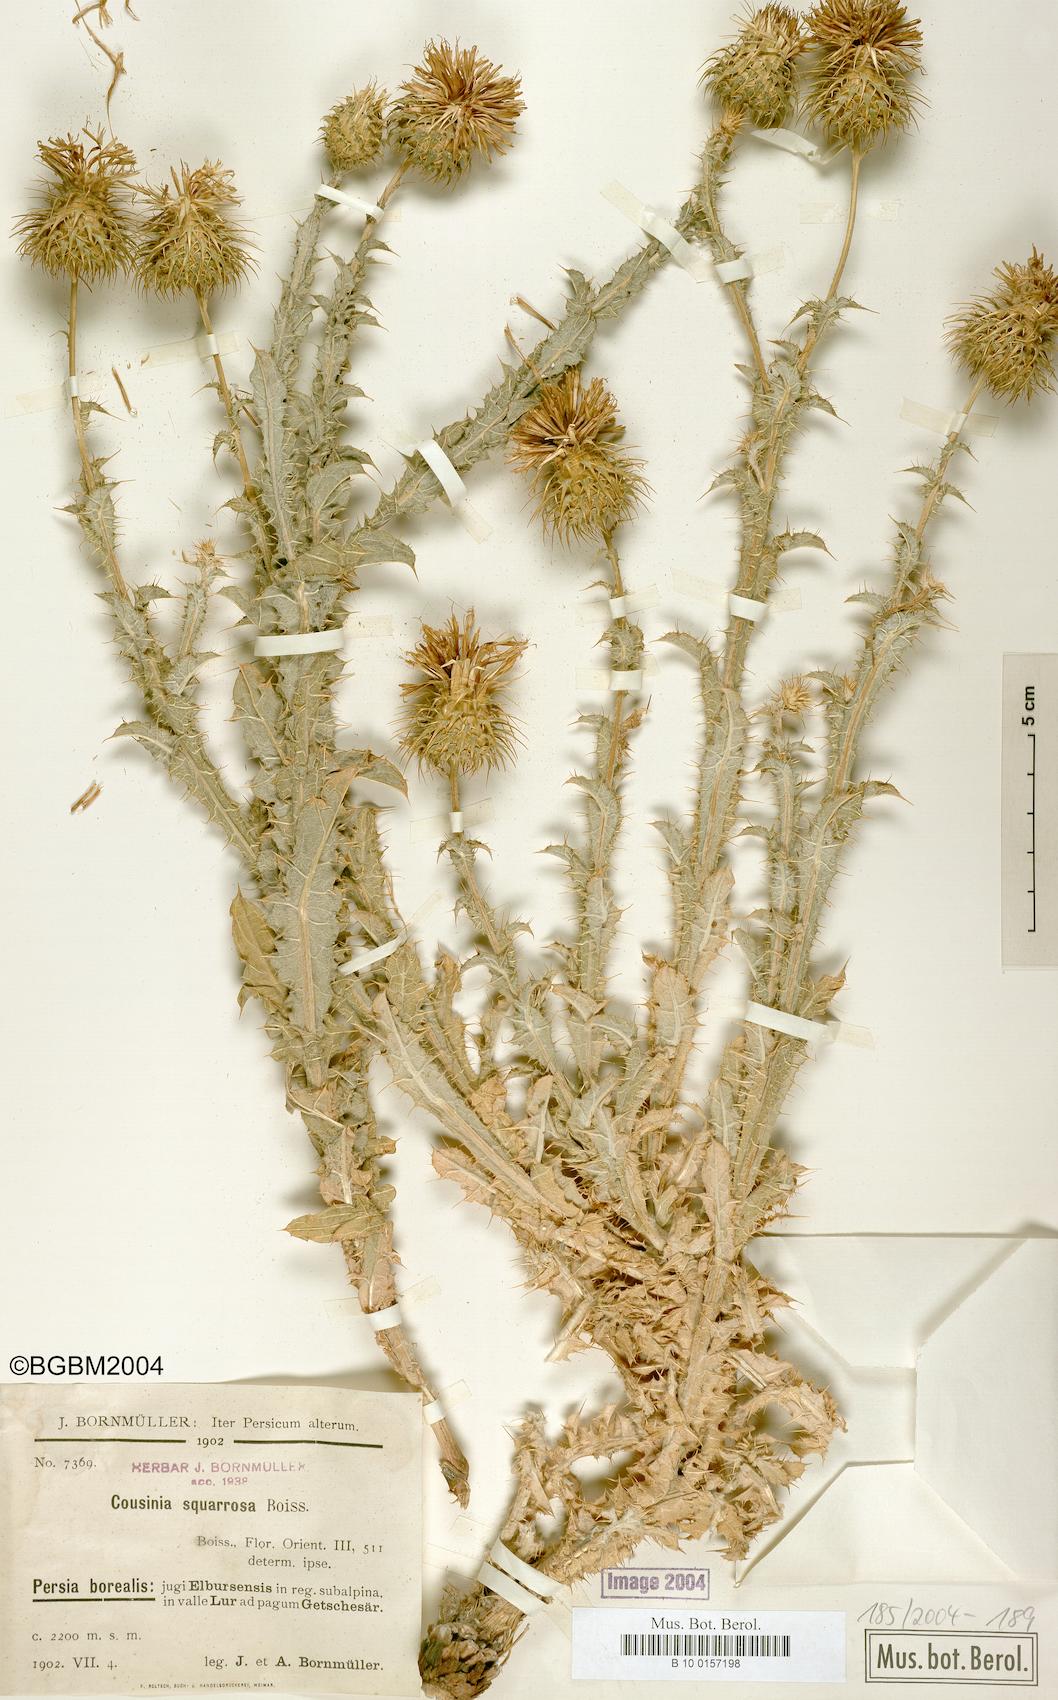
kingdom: Plantae
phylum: Tracheophyta
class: Magnoliopsida
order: Asterales
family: Asteraceae
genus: Cousinia
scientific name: Cousinia calocephala
